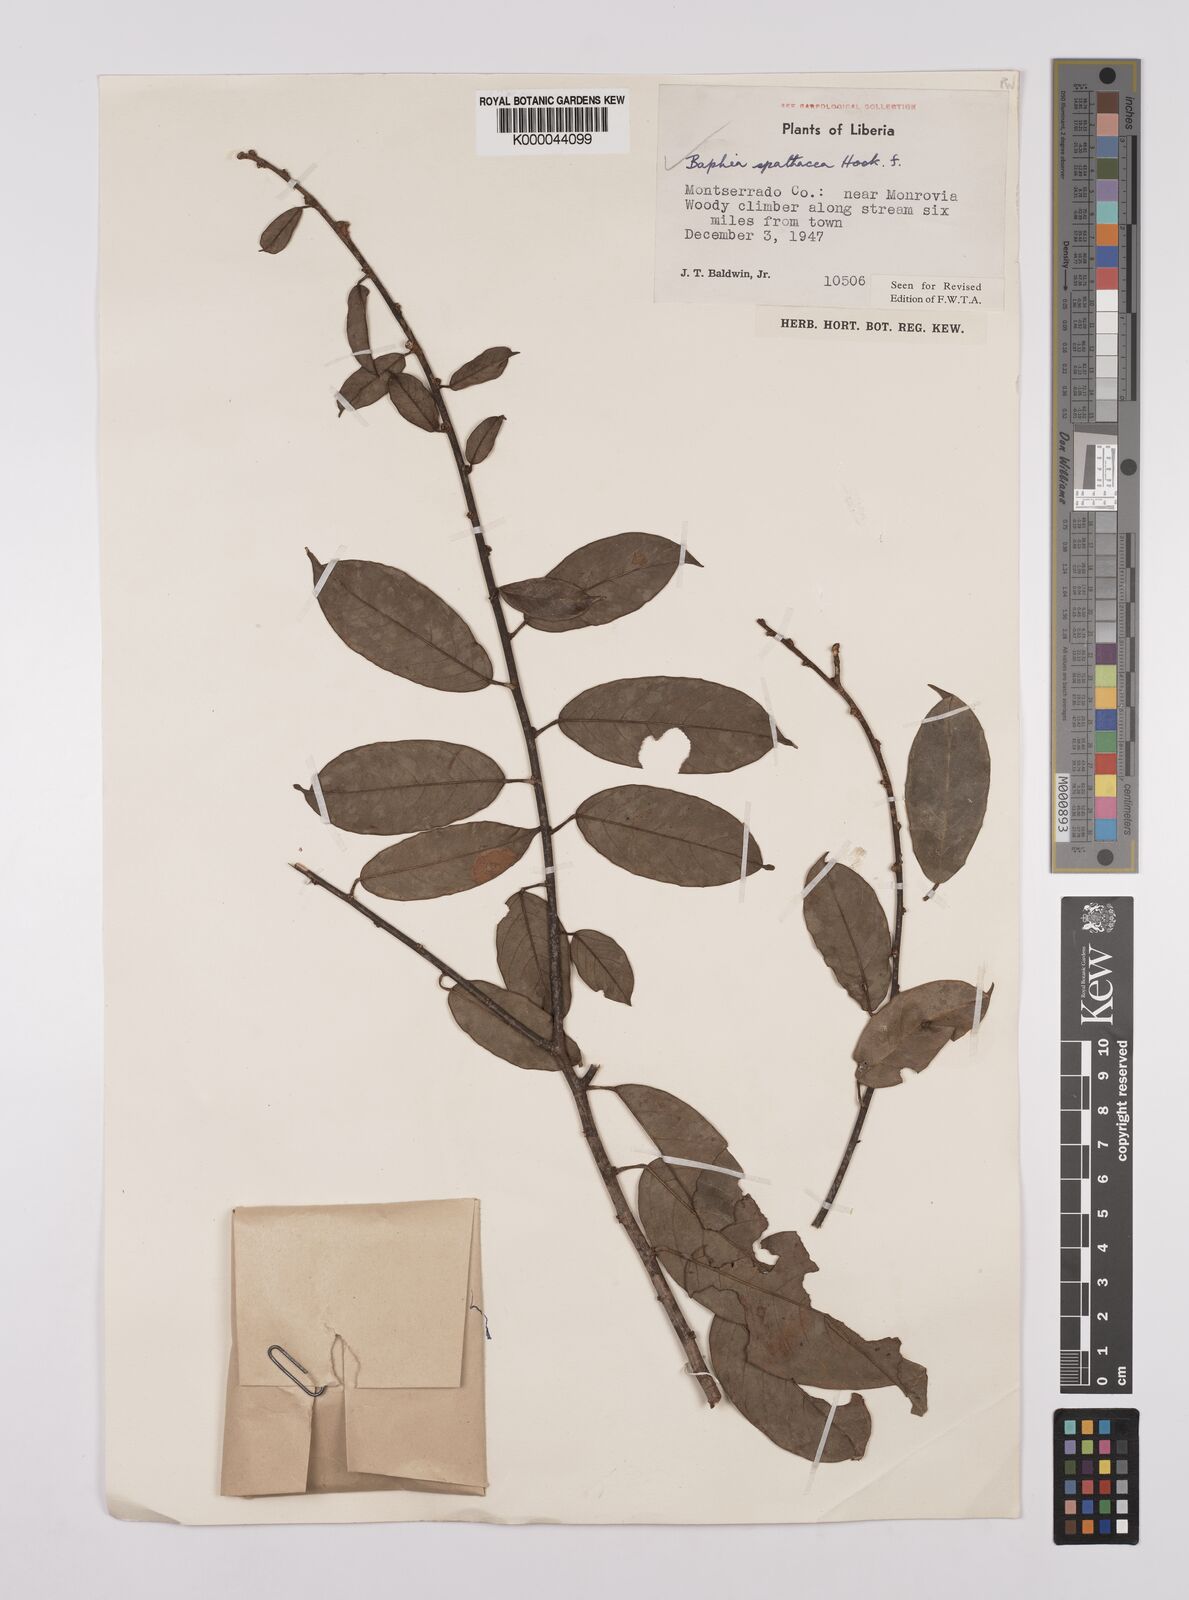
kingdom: Plantae
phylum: Tracheophyta
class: Magnoliopsida
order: Fabales
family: Fabaceae
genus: Baphia
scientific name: Baphia spathacea
